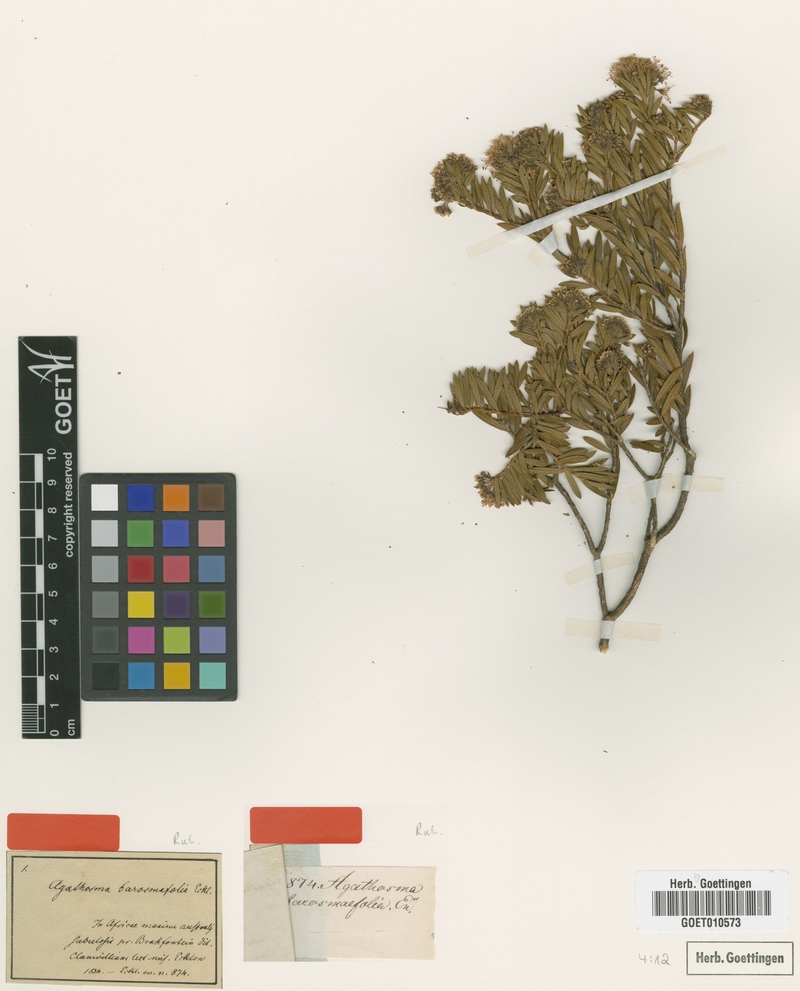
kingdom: Plantae
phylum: Tracheophyta
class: Magnoliopsida
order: Sapindales
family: Rutaceae
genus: Agathosma
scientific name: Agathosma bisulca
